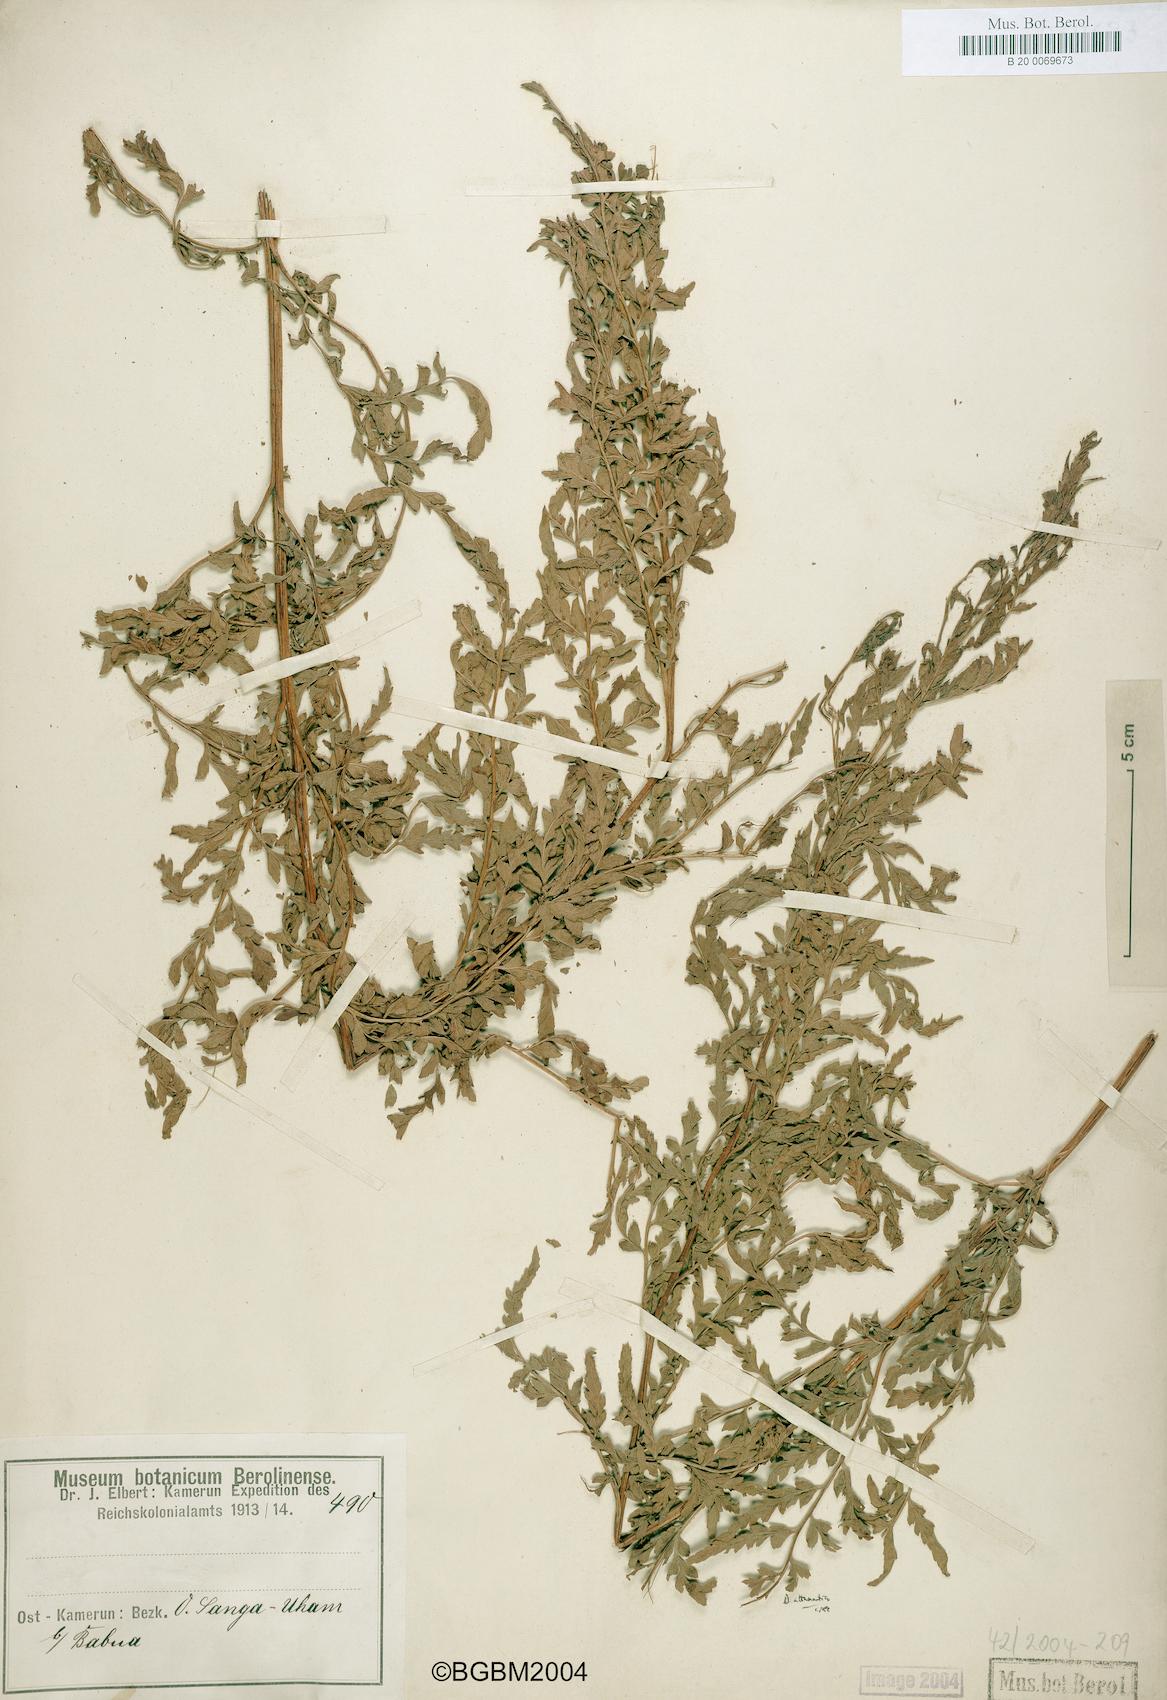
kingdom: Plantae
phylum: Tracheophyta
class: Polypodiopsida
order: Polypodiales
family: Dryopteridaceae
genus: Dryopteris
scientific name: Dryopteris
